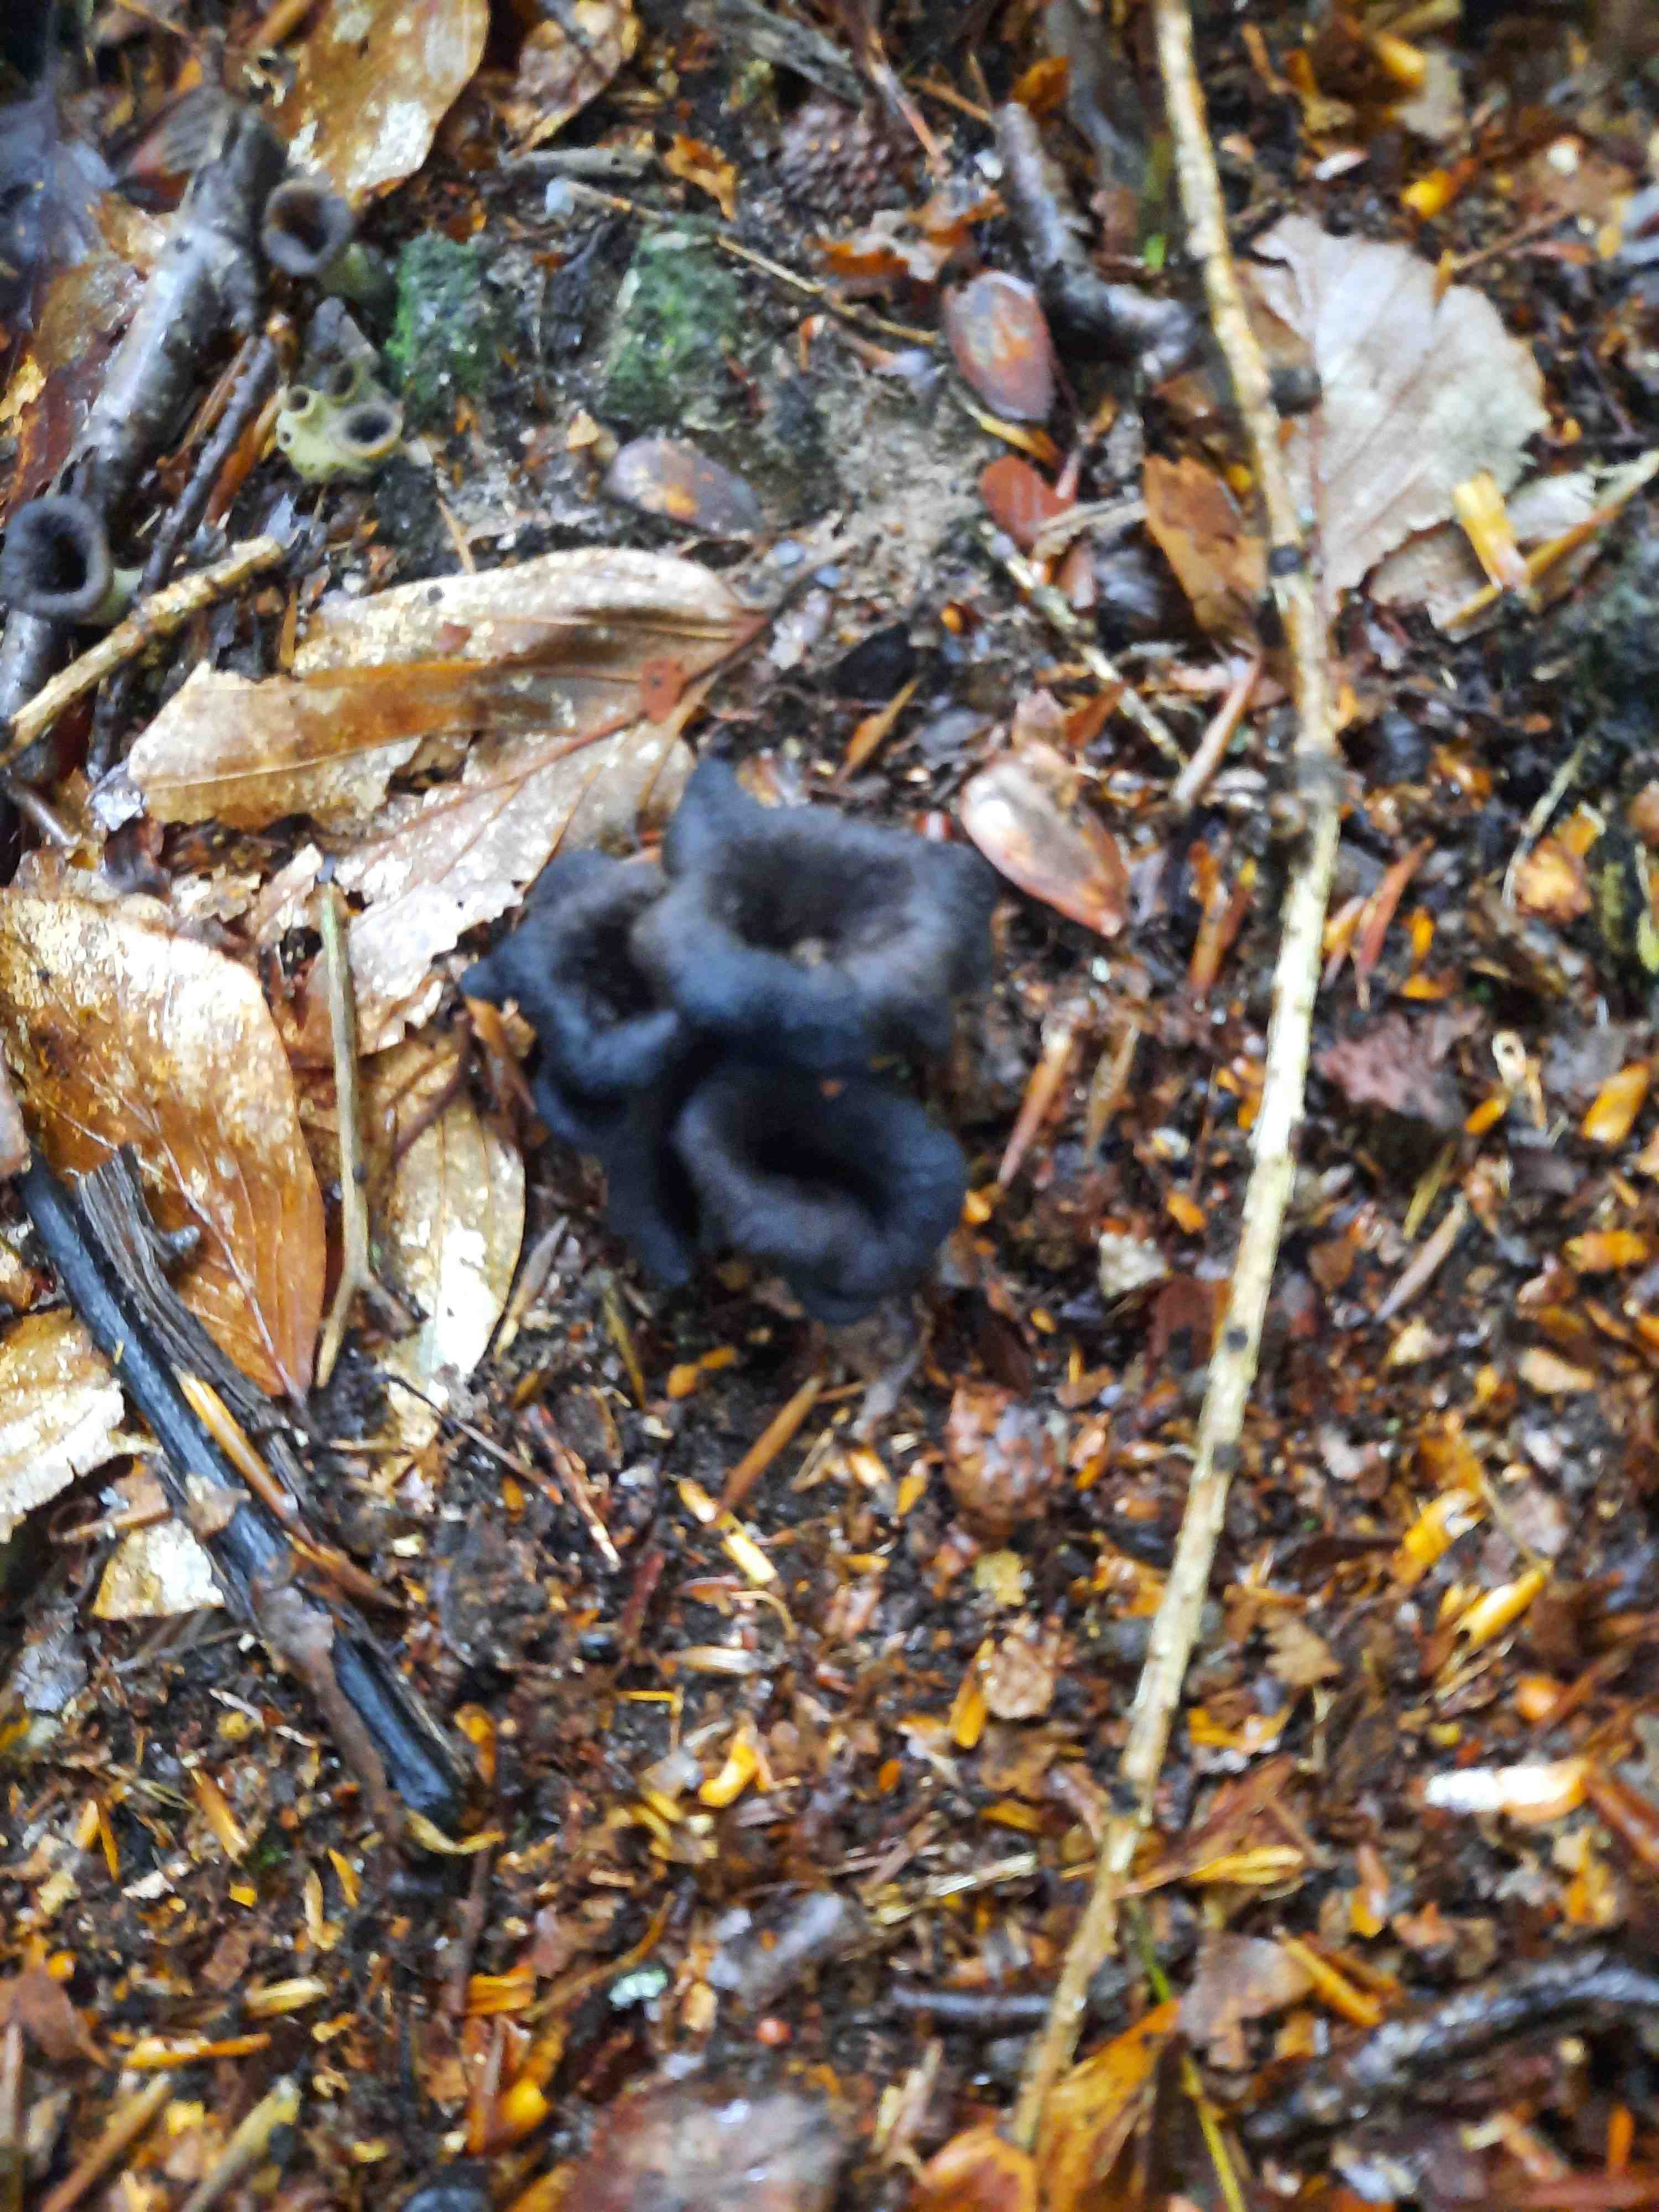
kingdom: Fungi
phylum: Basidiomycota
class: Agaricomycetes
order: Cantharellales
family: Hydnaceae
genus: Craterellus
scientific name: Craterellus cornucopioides
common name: trompetsvamp
